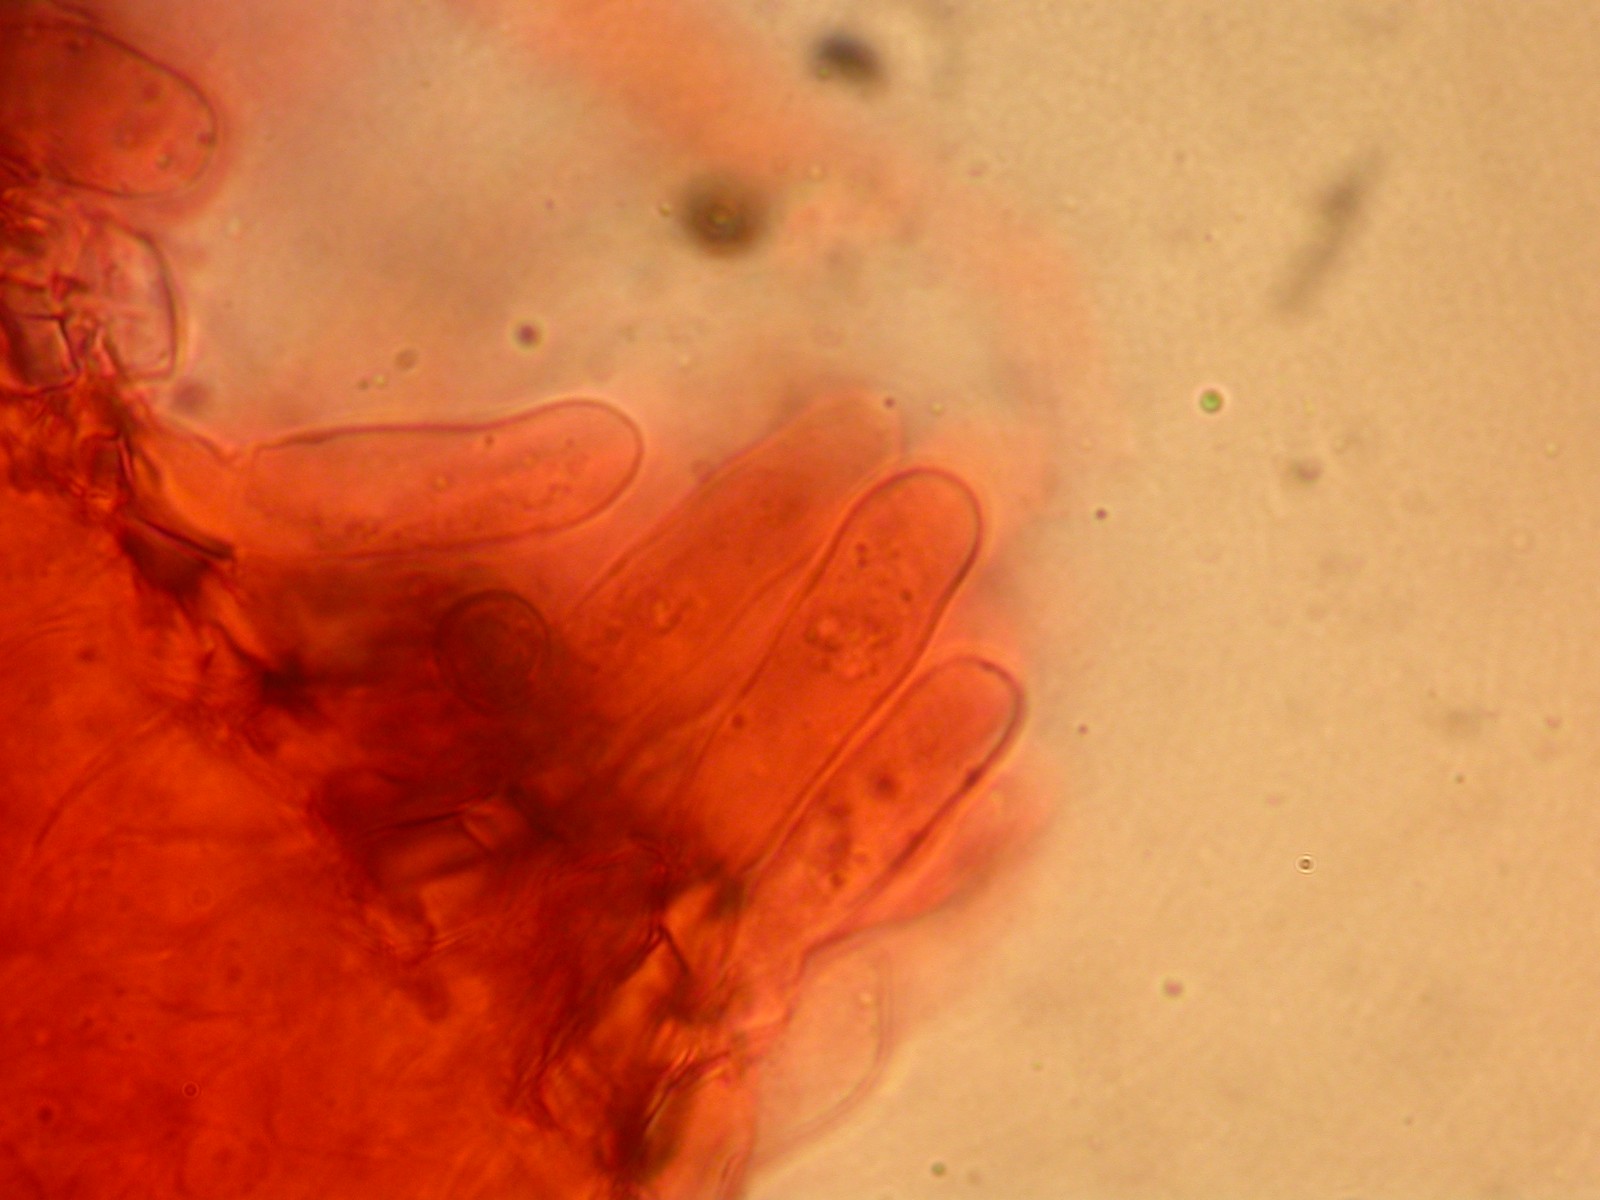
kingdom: Fungi
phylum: Basidiomycota
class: Agaricomycetes
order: Agaricales
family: Crepidotaceae
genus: Crepidotus
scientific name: Crepidotus
